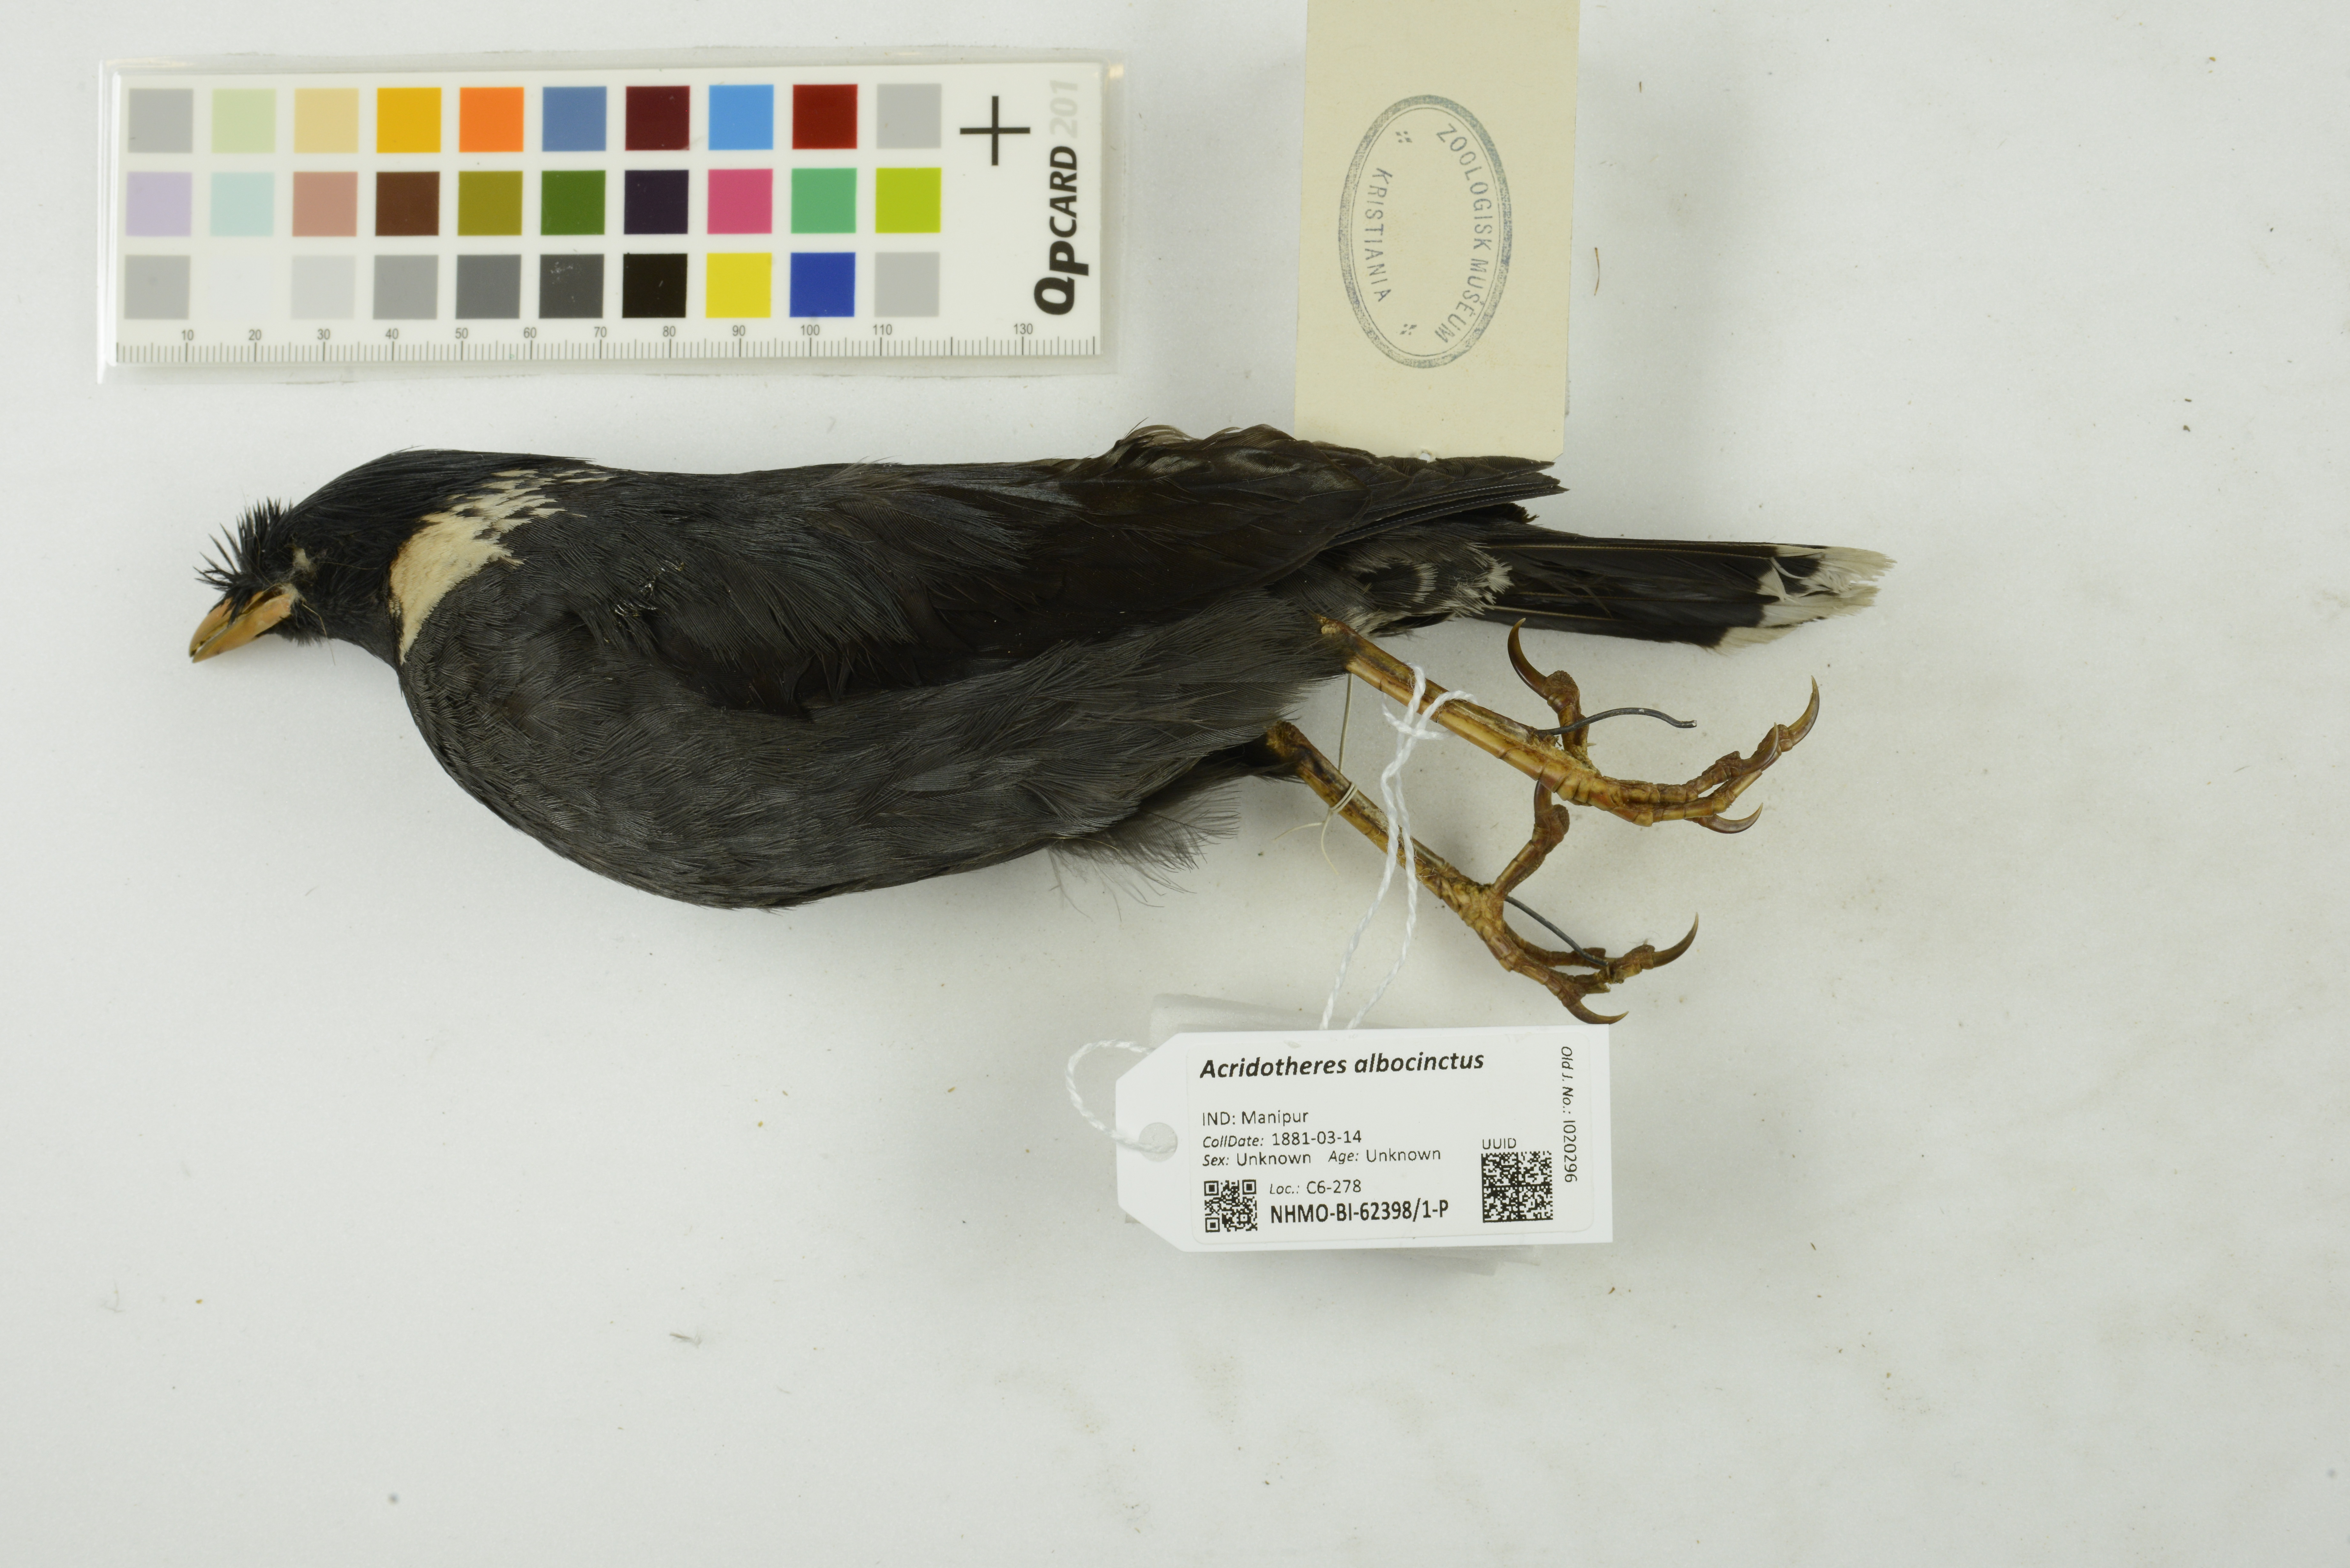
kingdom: Animalia
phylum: Chordata
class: Aves
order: Passeriformes
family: Sturnidae
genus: Acridotheres
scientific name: Acridotheres albocinctus
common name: Collared myna
